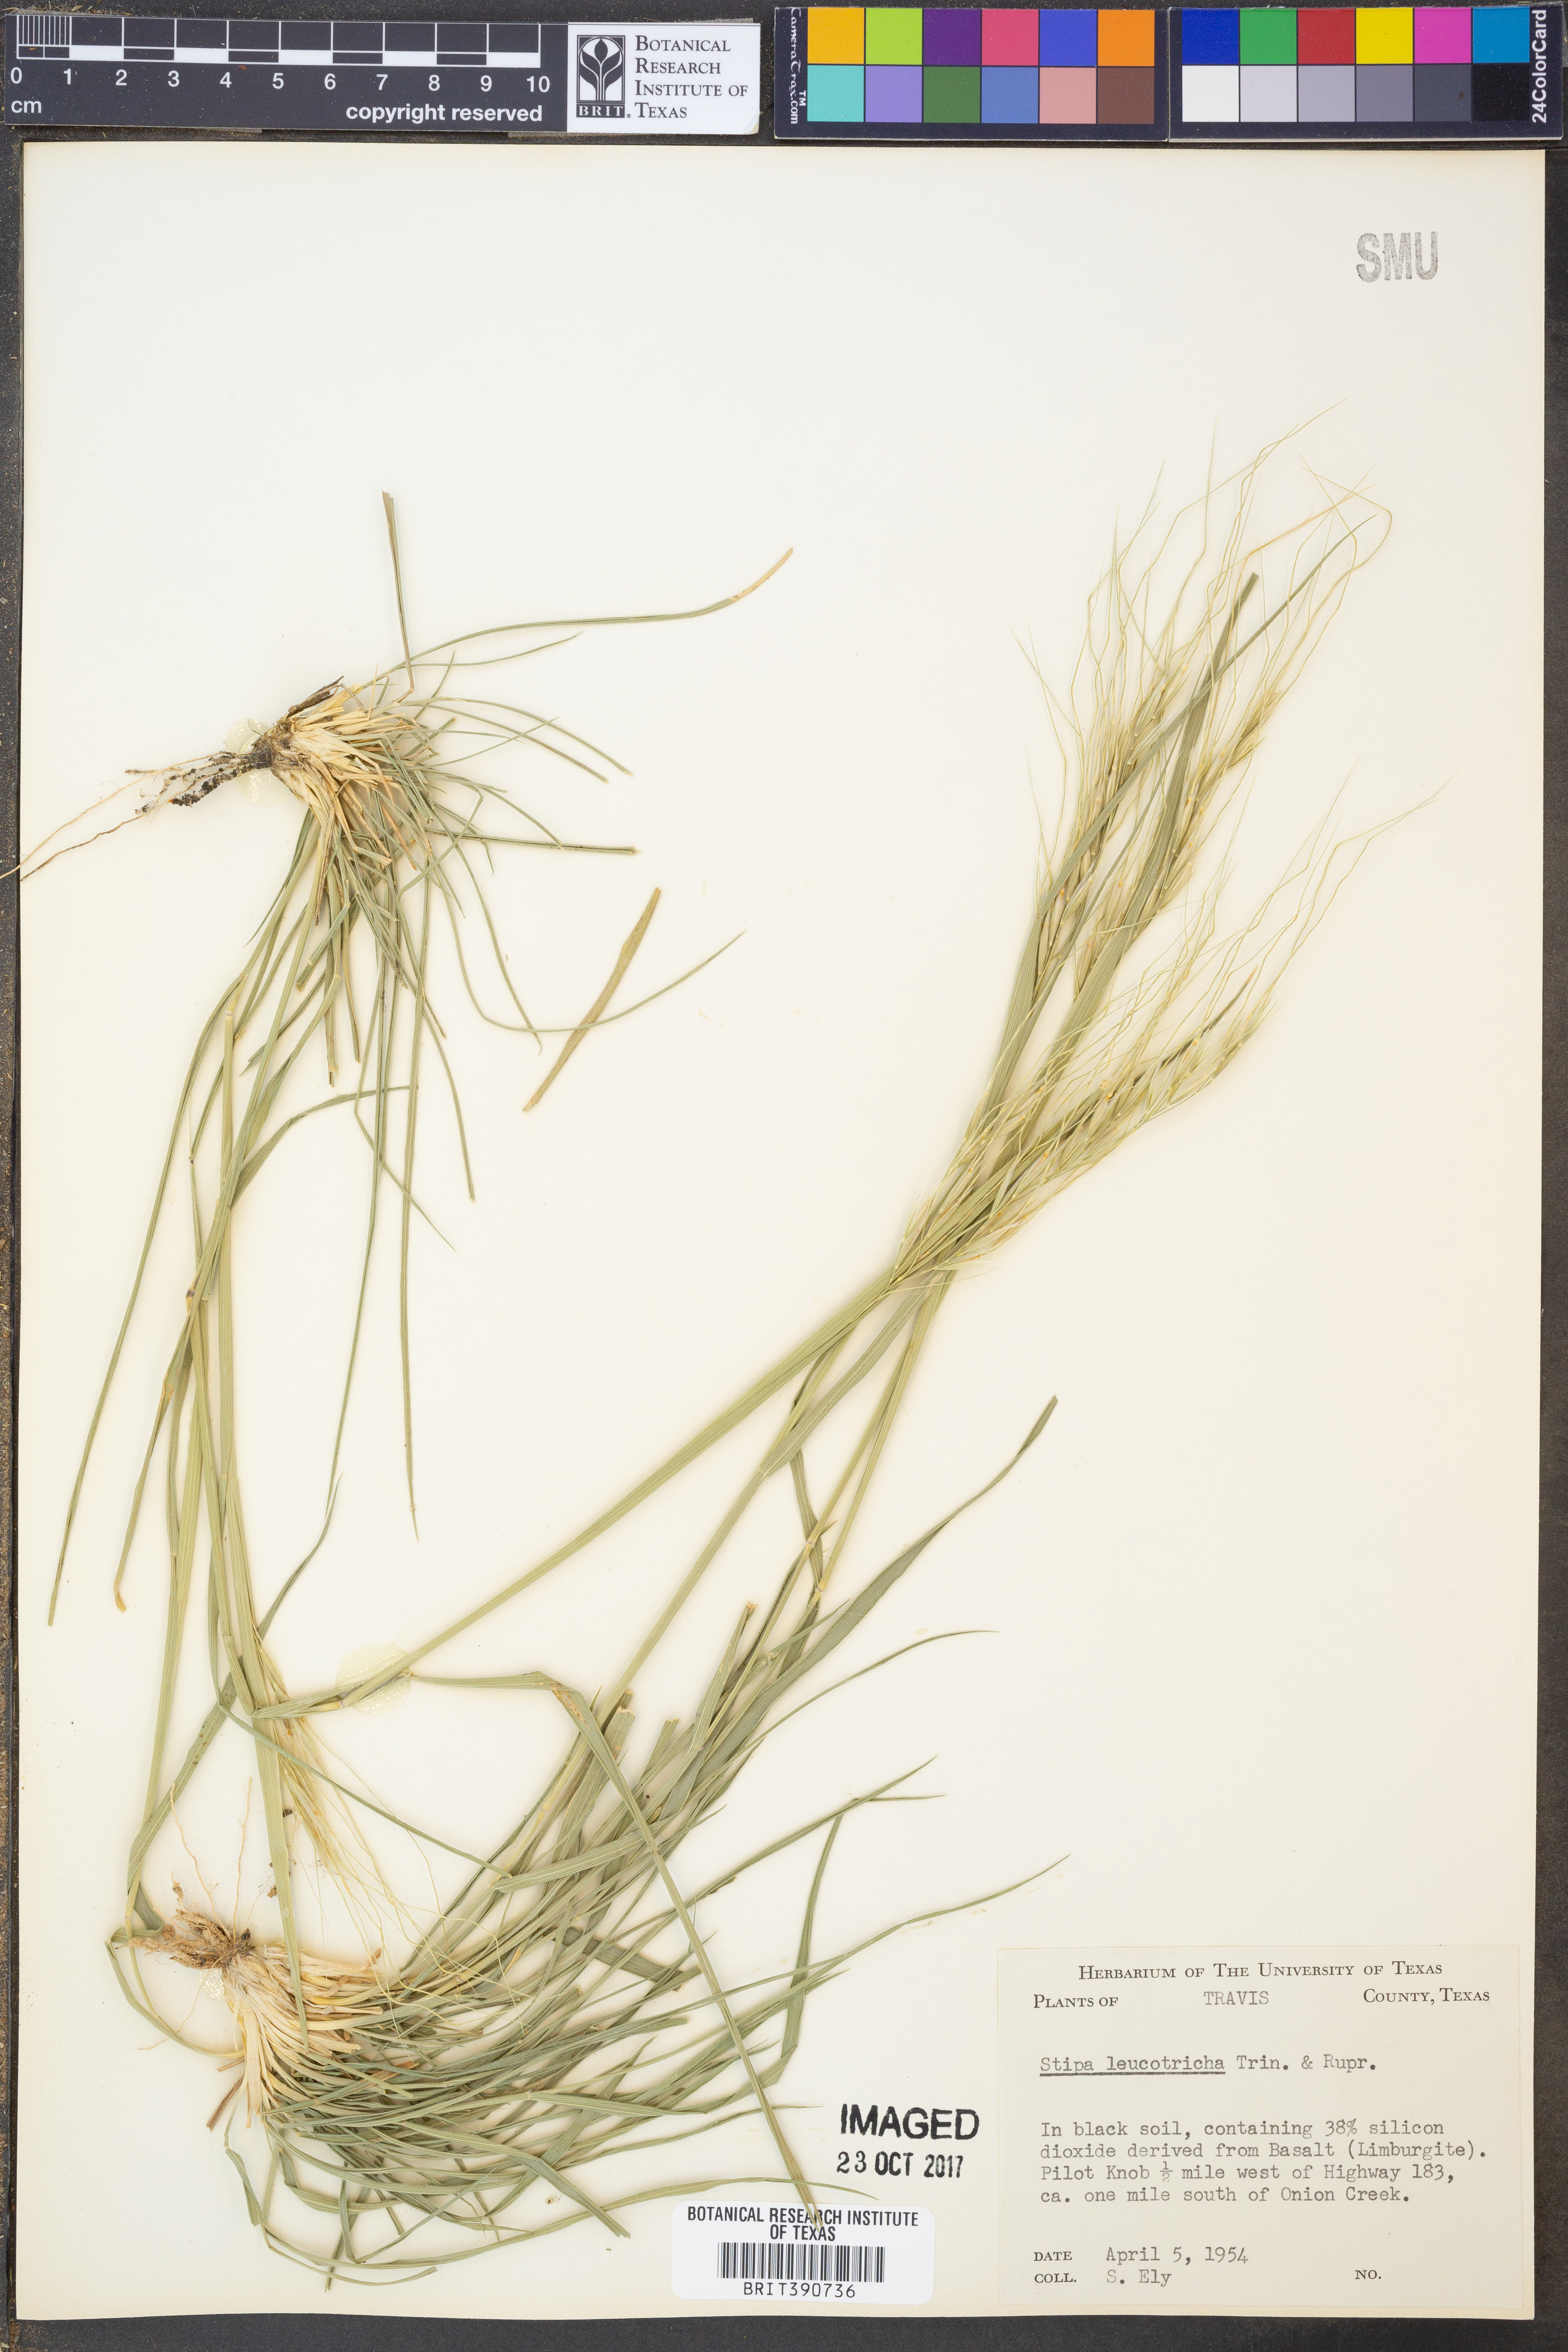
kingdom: Plantae
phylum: Tracheophyta
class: Liliopsida
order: Poales
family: Poaceae
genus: Nassella
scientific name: Nassella leucotricha
